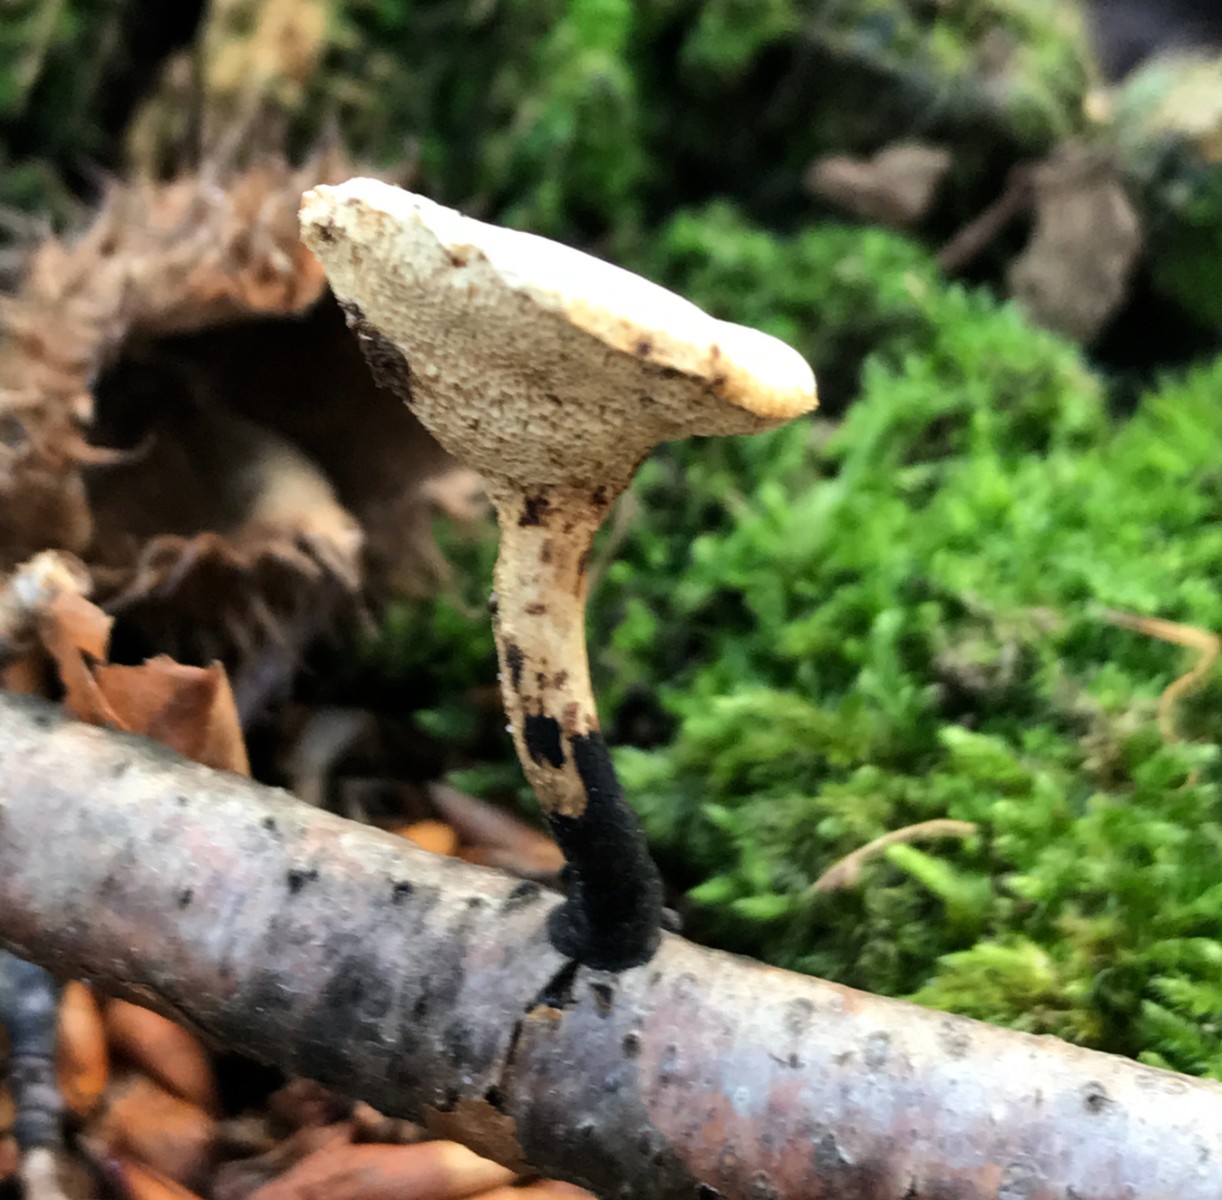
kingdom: Fungi
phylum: Basidiomycota
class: Agaricomycetes
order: Polyporales
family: Polyporaceae
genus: Cerioporus
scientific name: Cerioporus varius
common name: foranderlig stilkporesvamp
